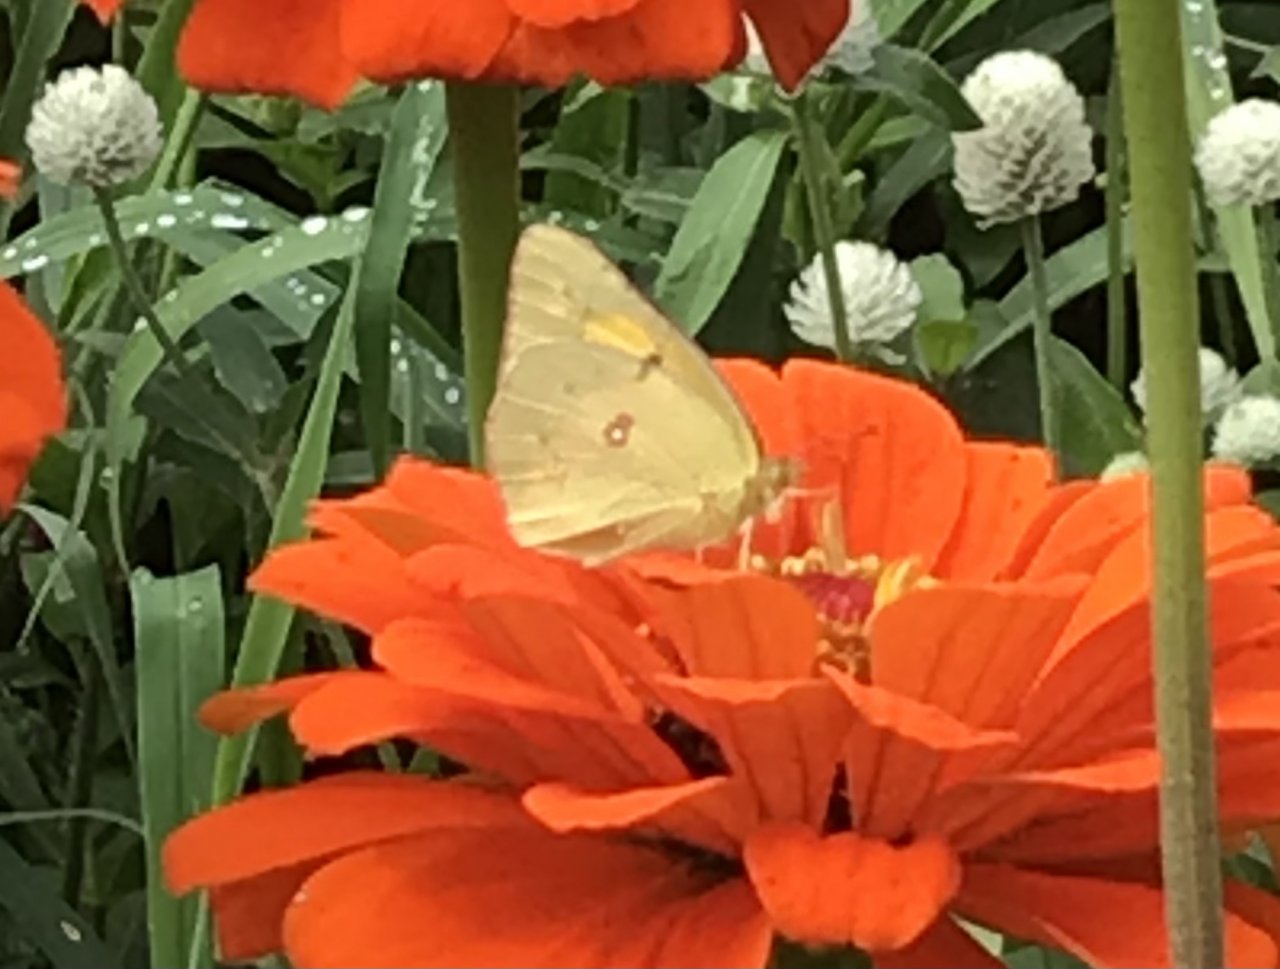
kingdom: Animalia
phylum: Arthropoda
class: Insecta
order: Lepidoptera
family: Pieridae
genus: Colias
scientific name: Colias eurytheme
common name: Orange Sulphur
